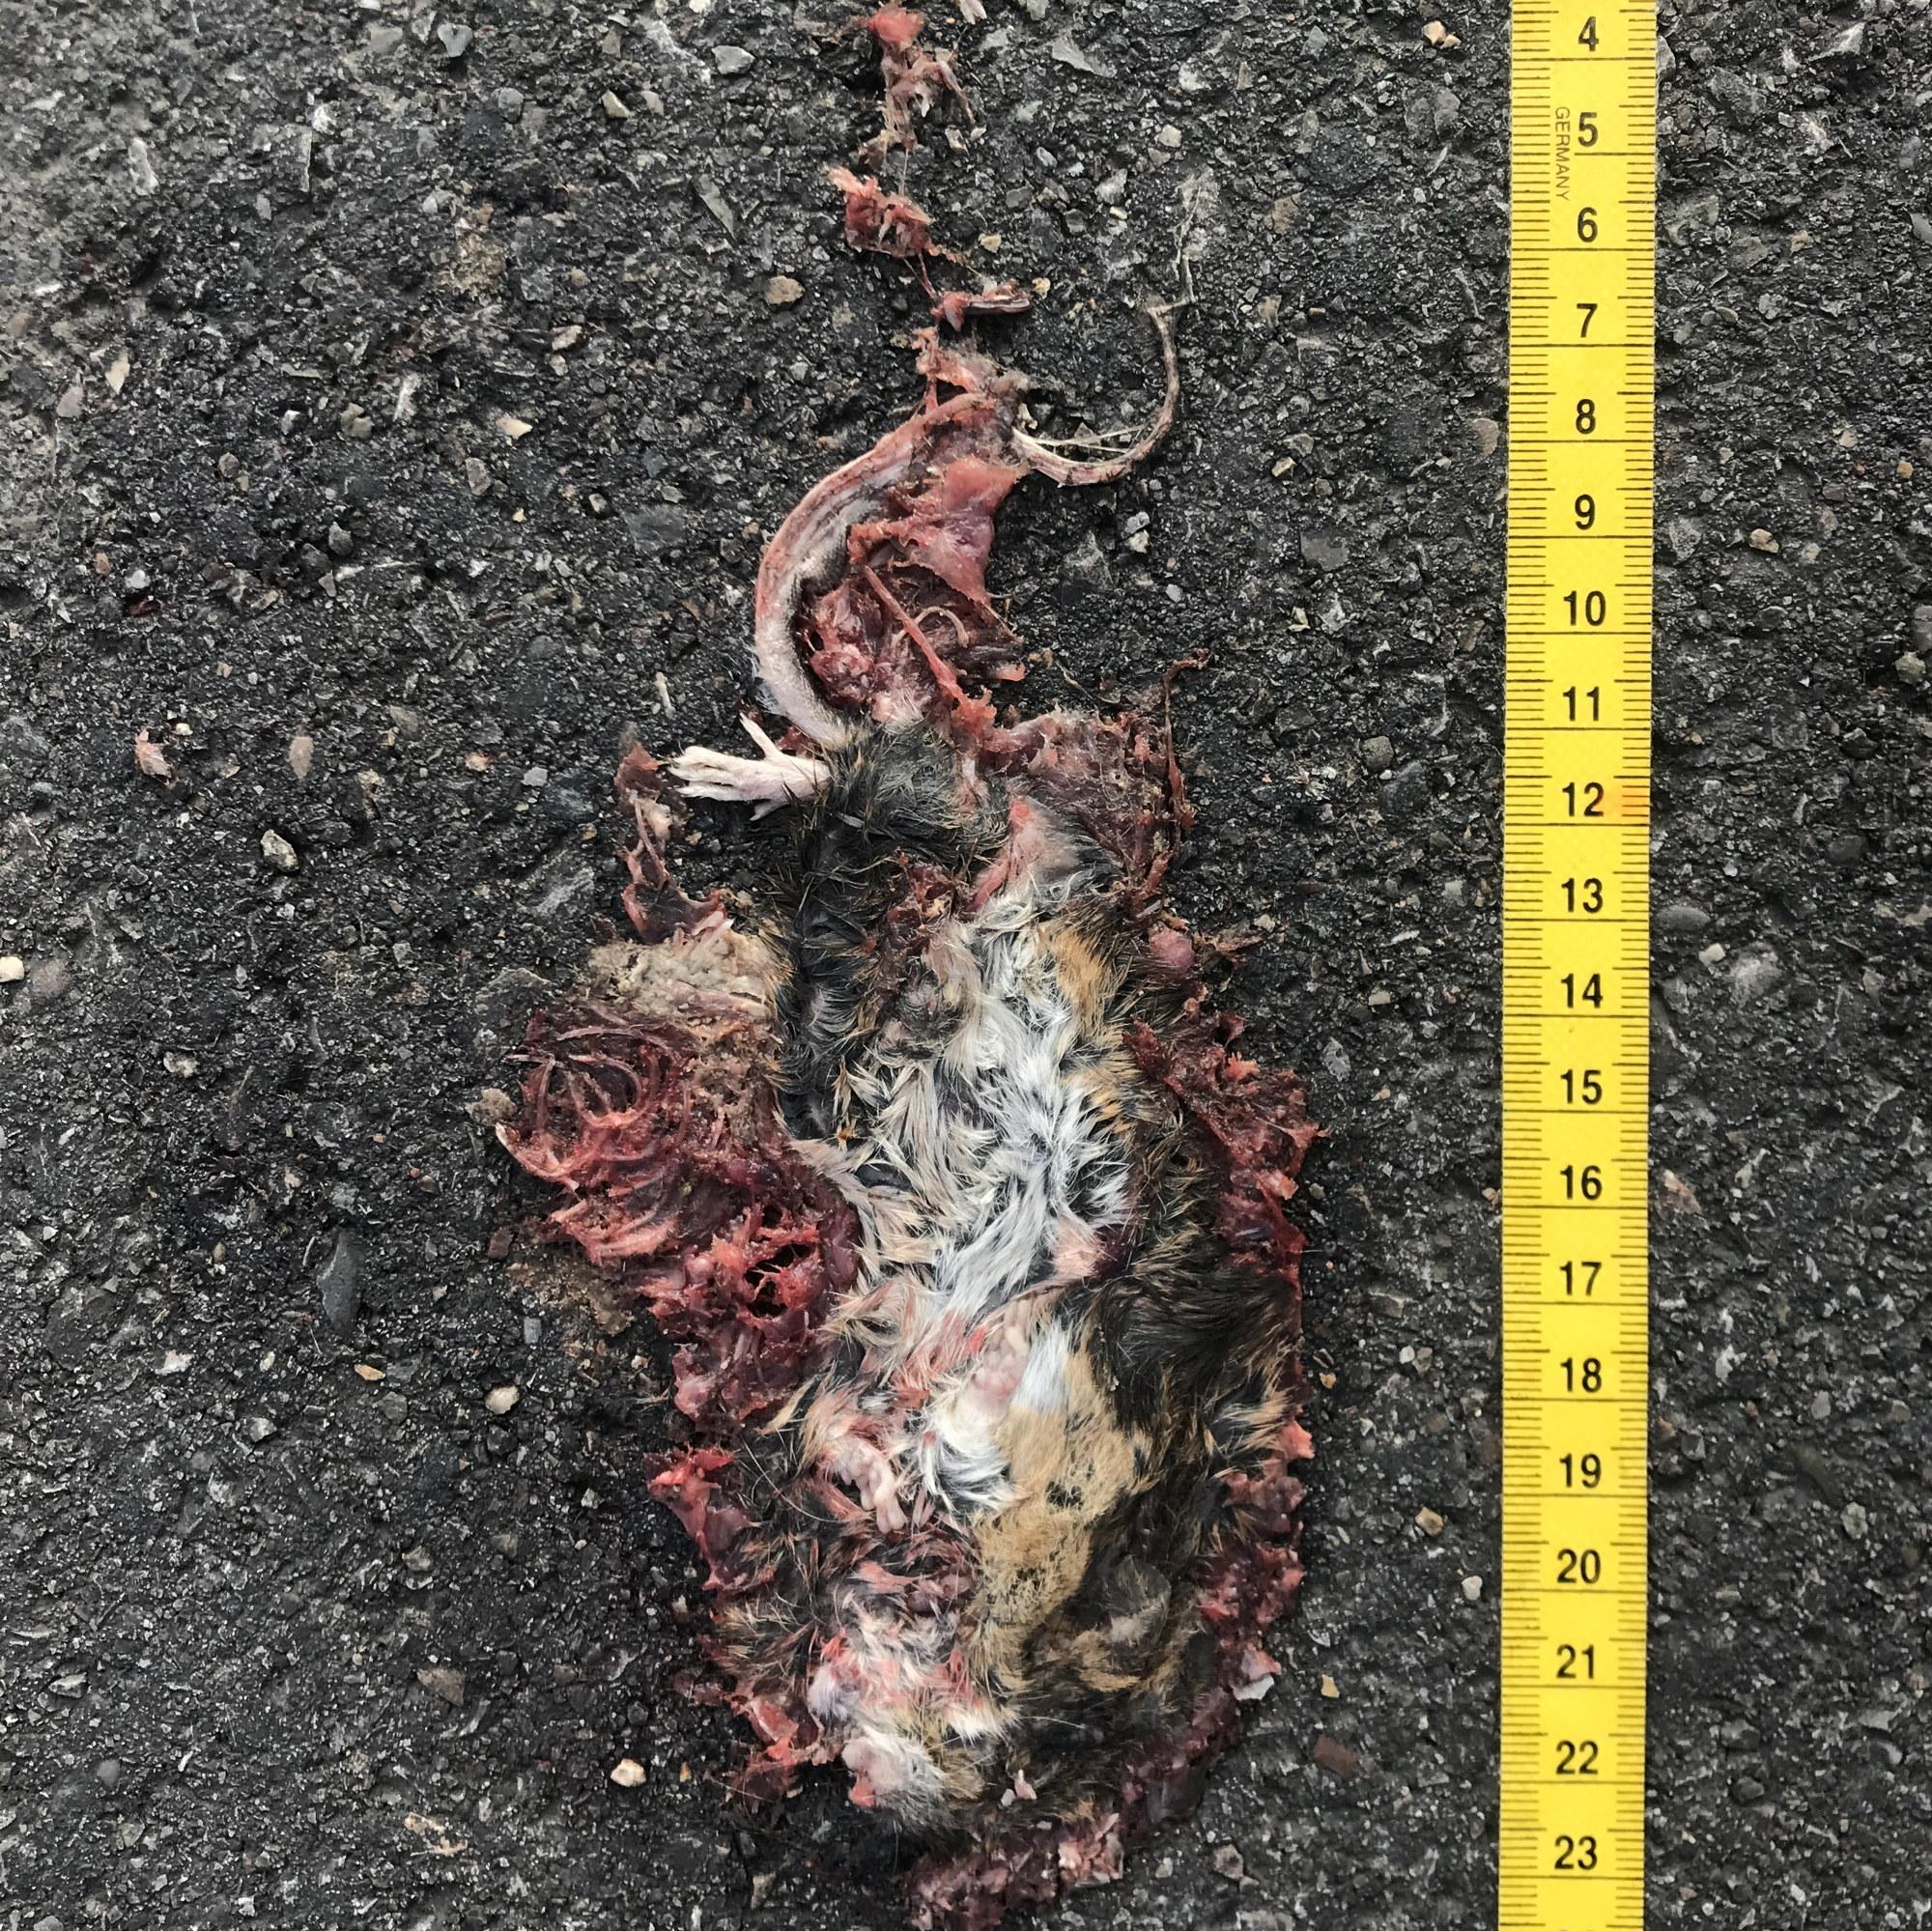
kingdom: Animalia
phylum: Chordata
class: Mammalia
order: Rodentia
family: Muridae
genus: Rattus
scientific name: Rattus
